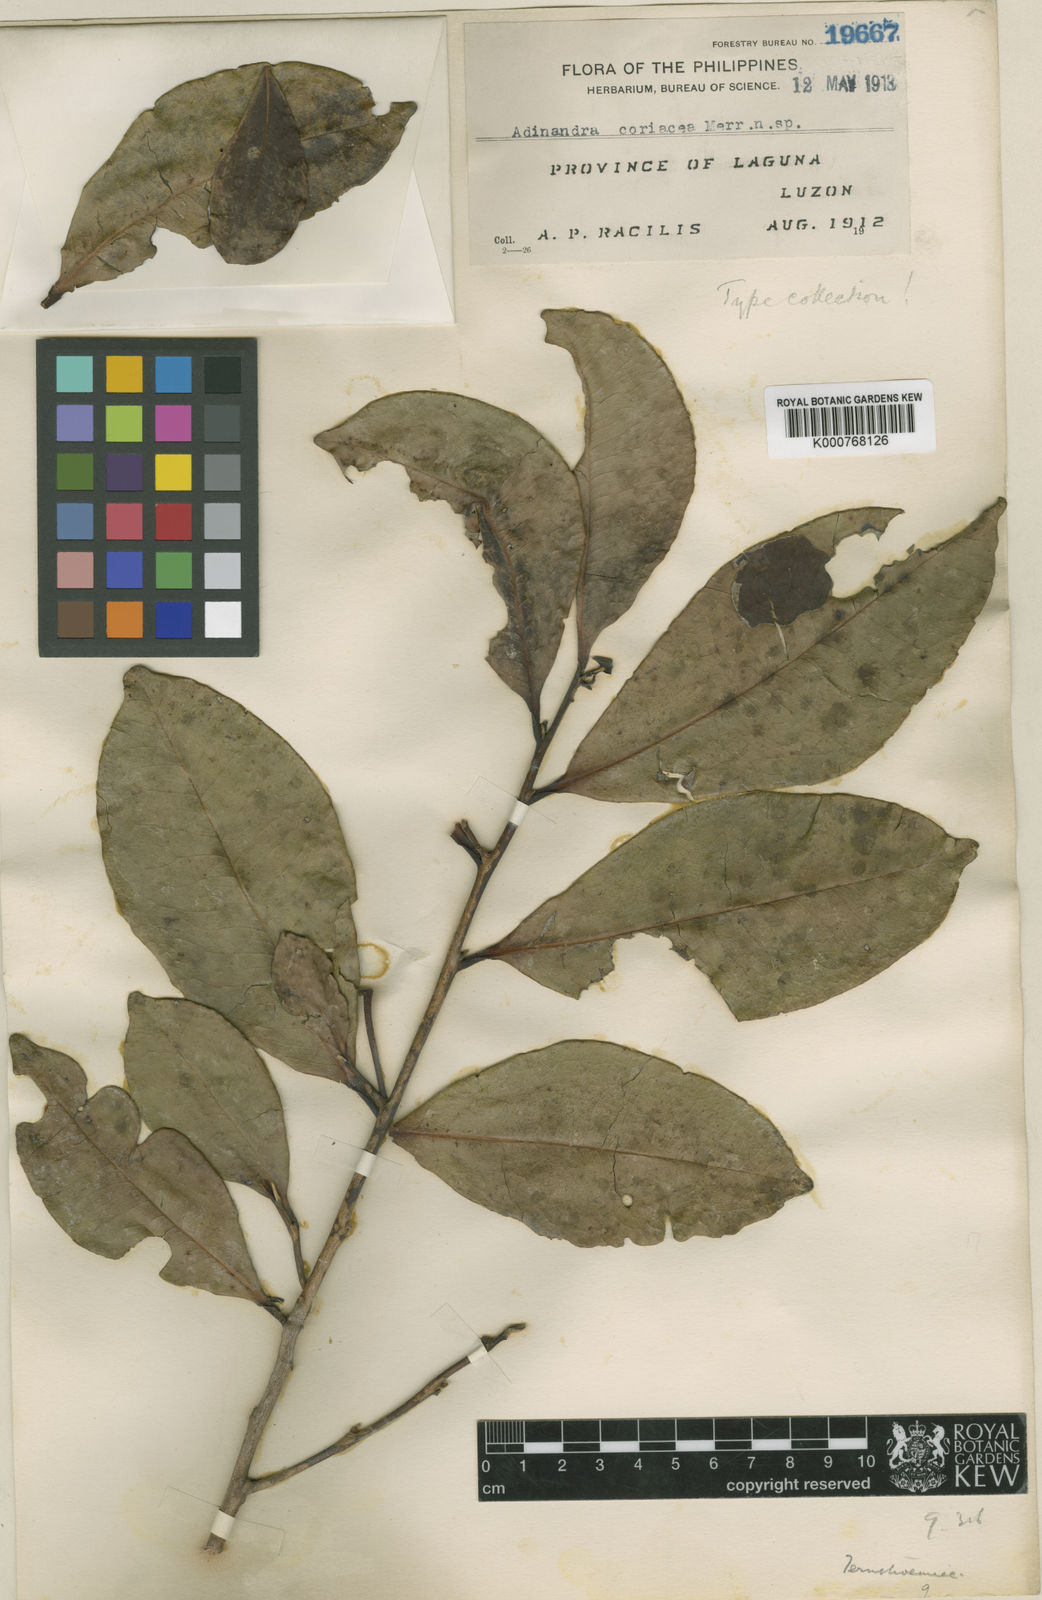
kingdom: Plantae
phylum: Tracheophyta
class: Magnoliopsida
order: Ericales
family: Pentaphylacaceae
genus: Adinandra
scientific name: Adinandra loheri
